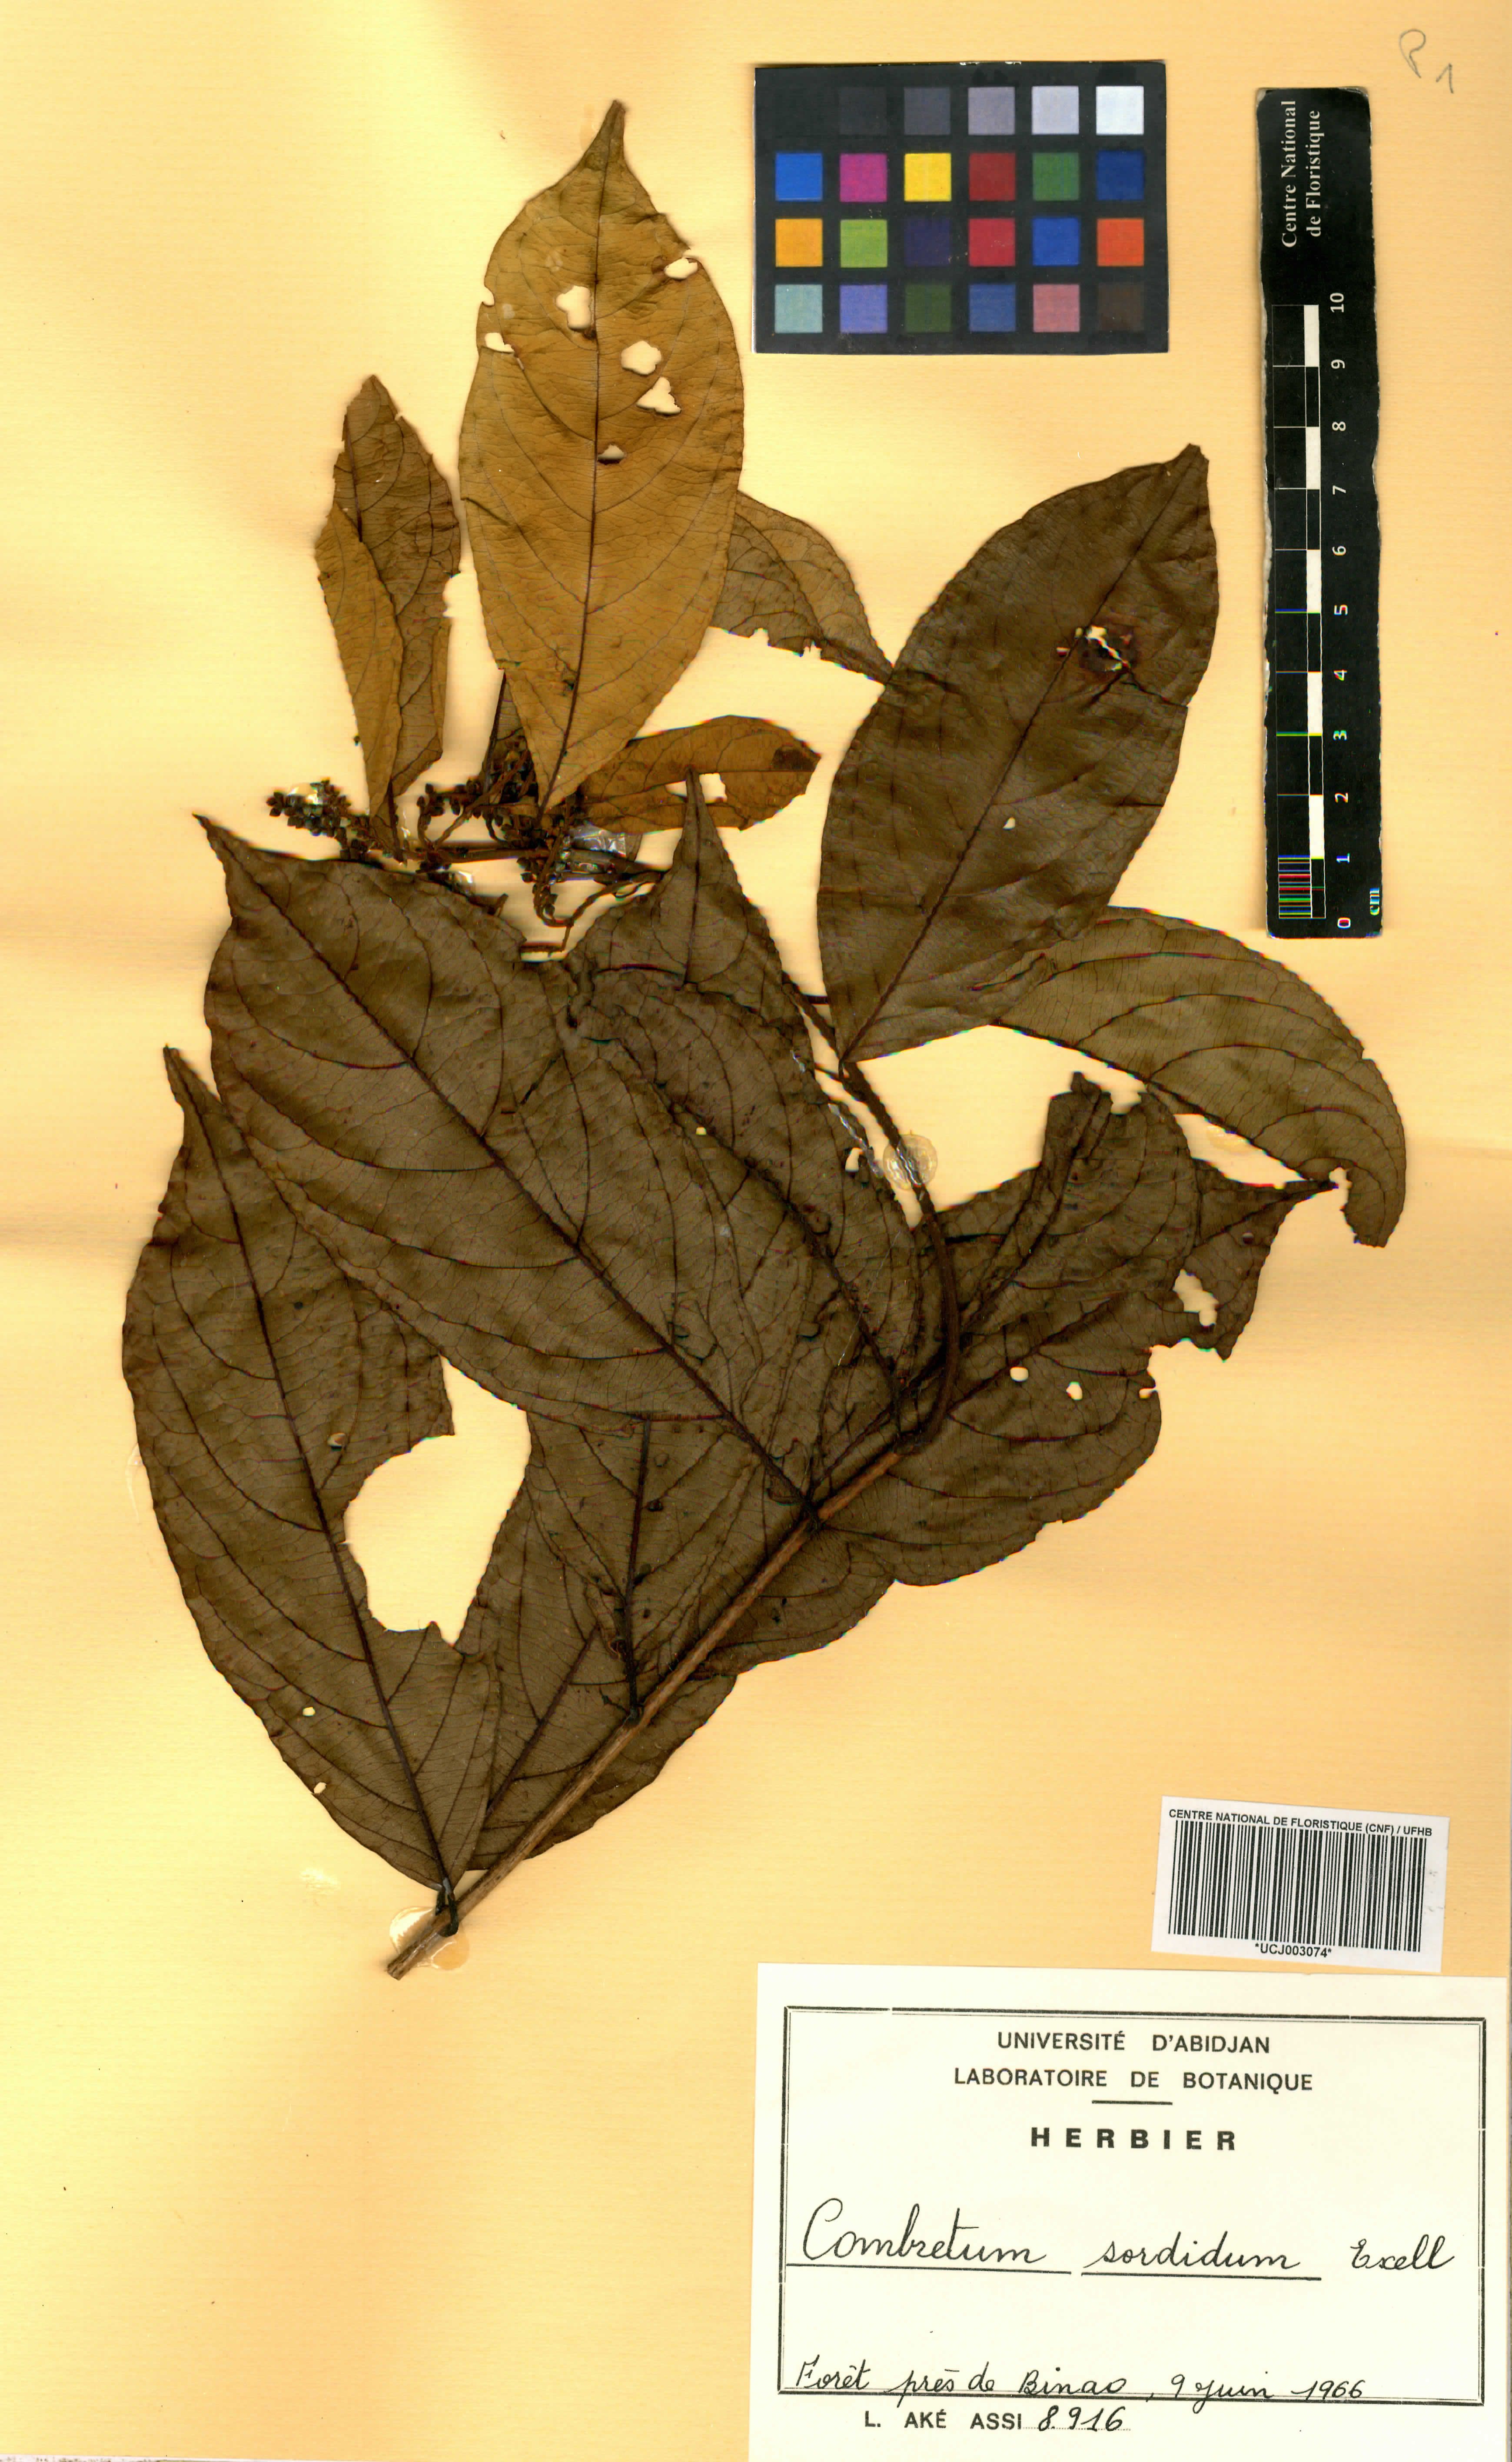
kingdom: Plantae
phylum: Tracheophyta
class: Magnoliopsida
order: Myrtales
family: Combretaceae
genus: Combretum
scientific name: Combretum sordidum
